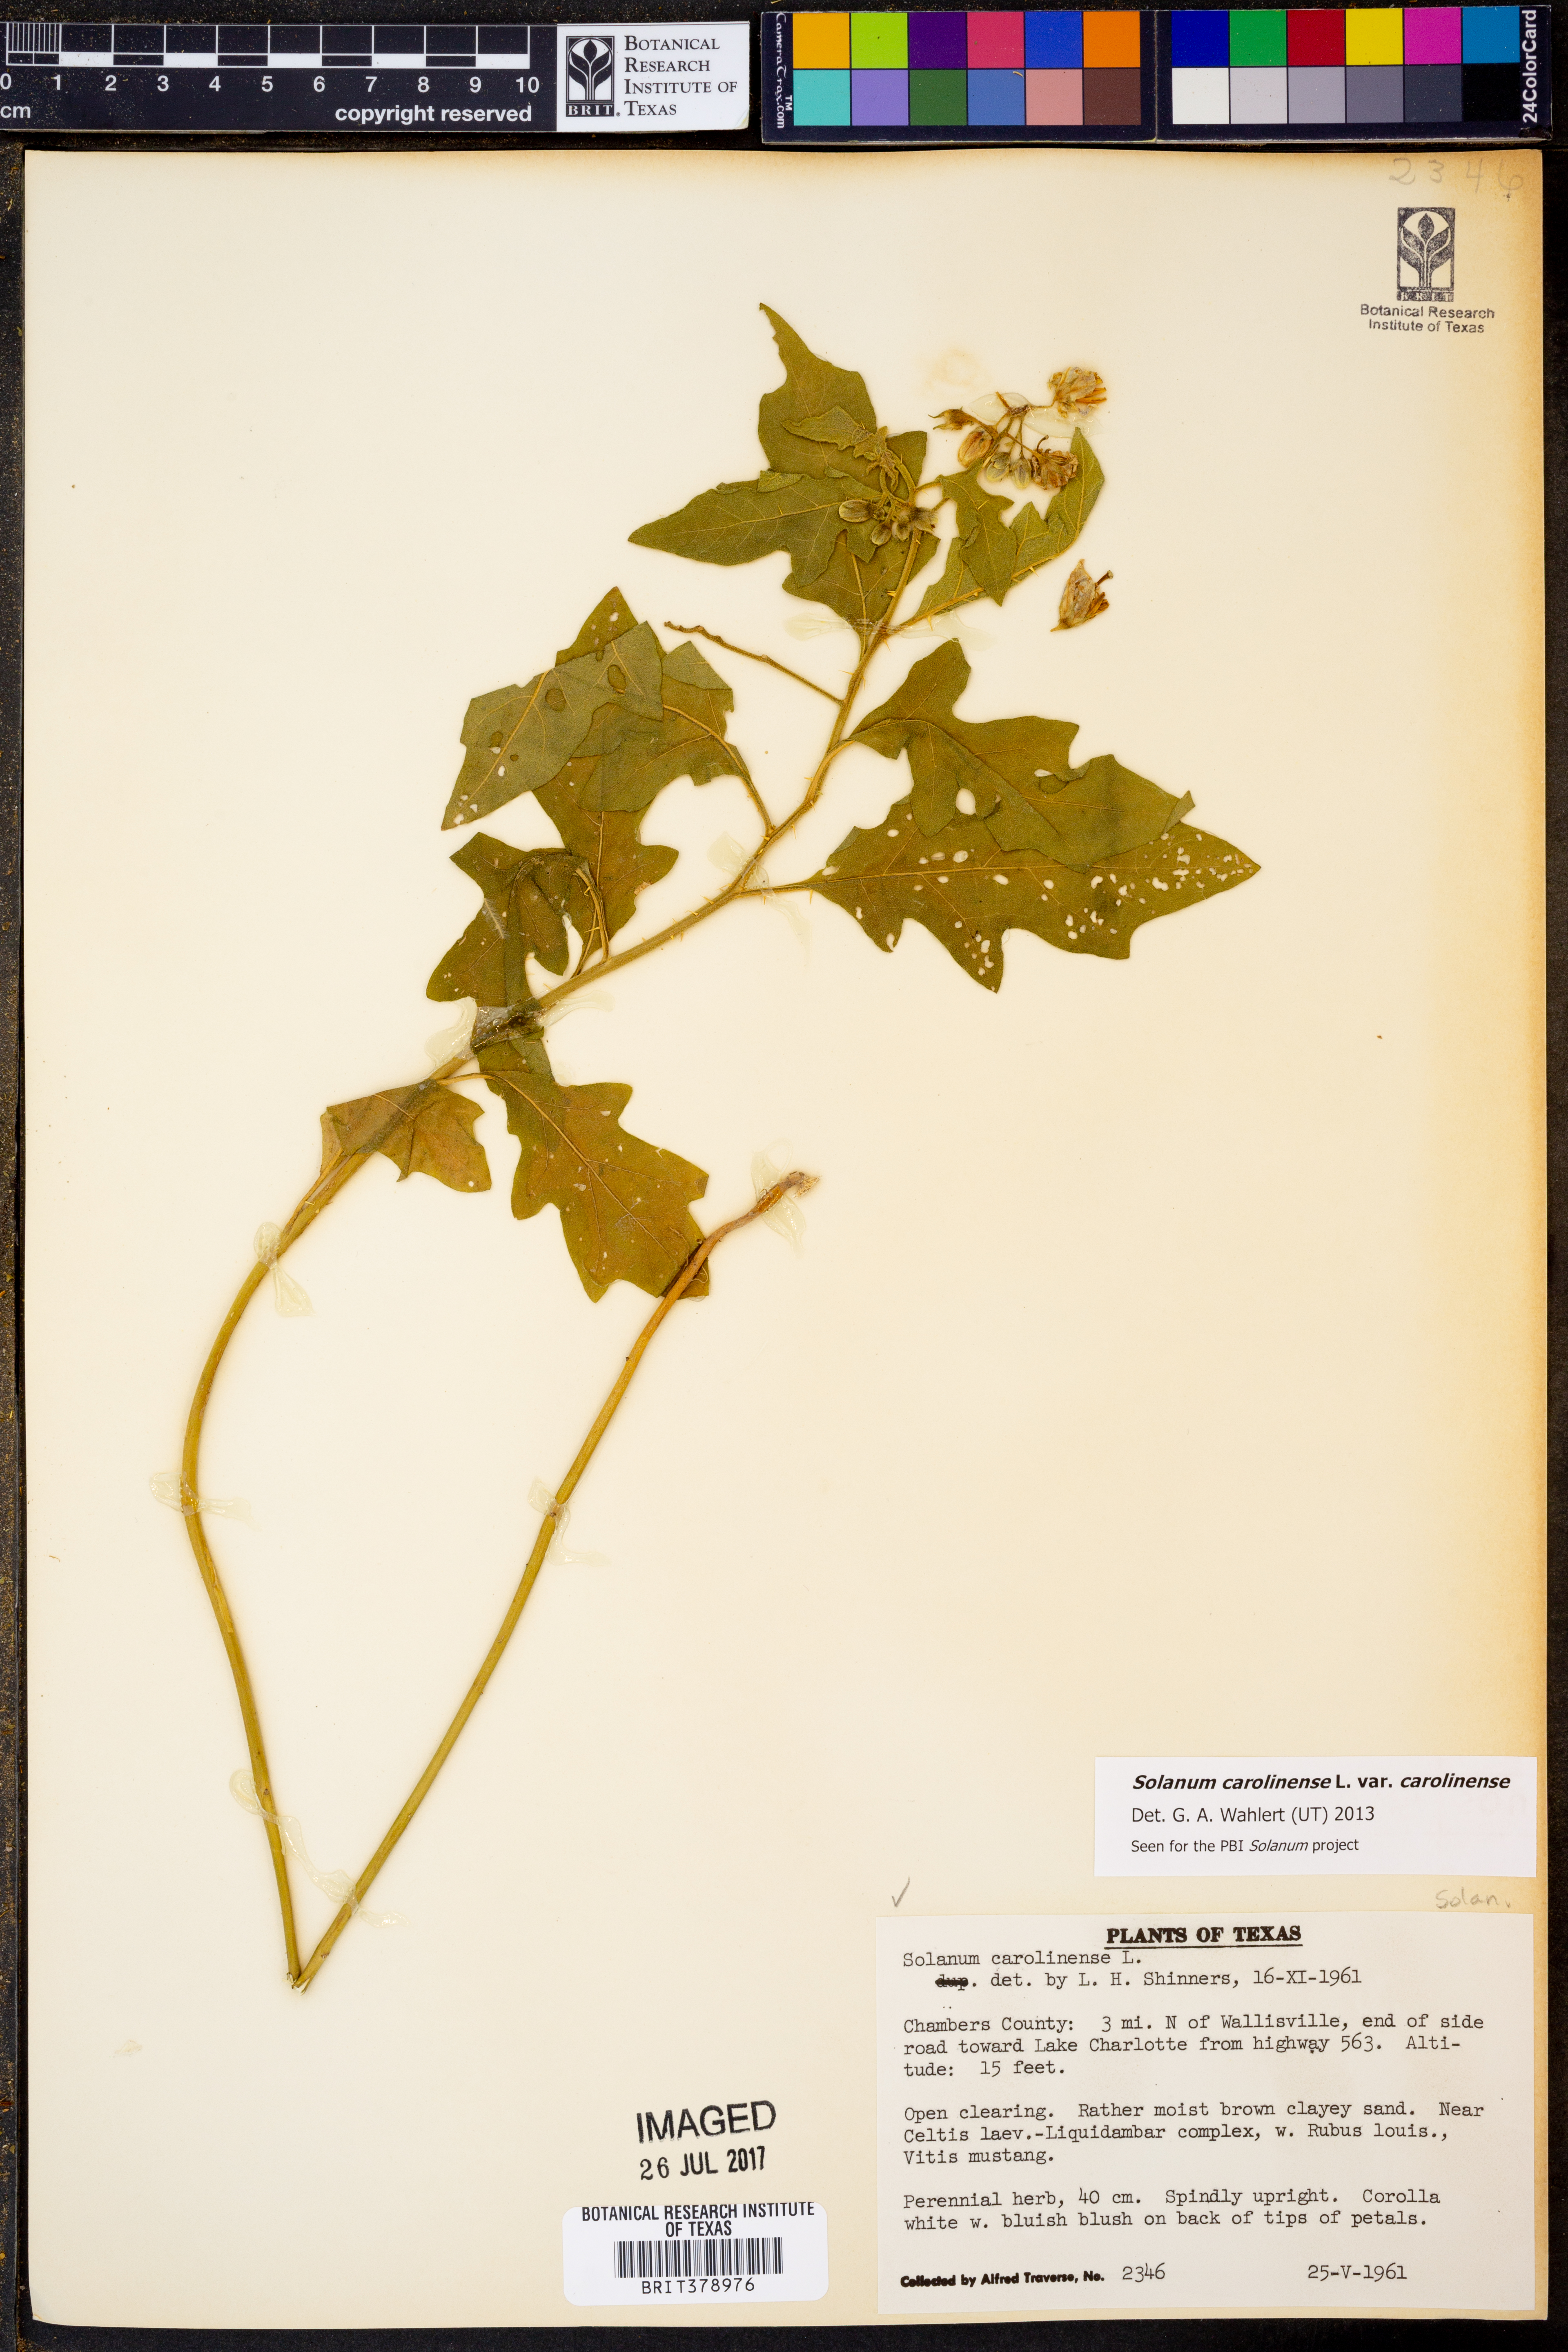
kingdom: Plantae
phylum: Tracheophyta
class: Magnoliopsida
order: Solanales
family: Solanaceae
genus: Solanum
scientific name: Solanum carolinense
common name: Horse-nettle
